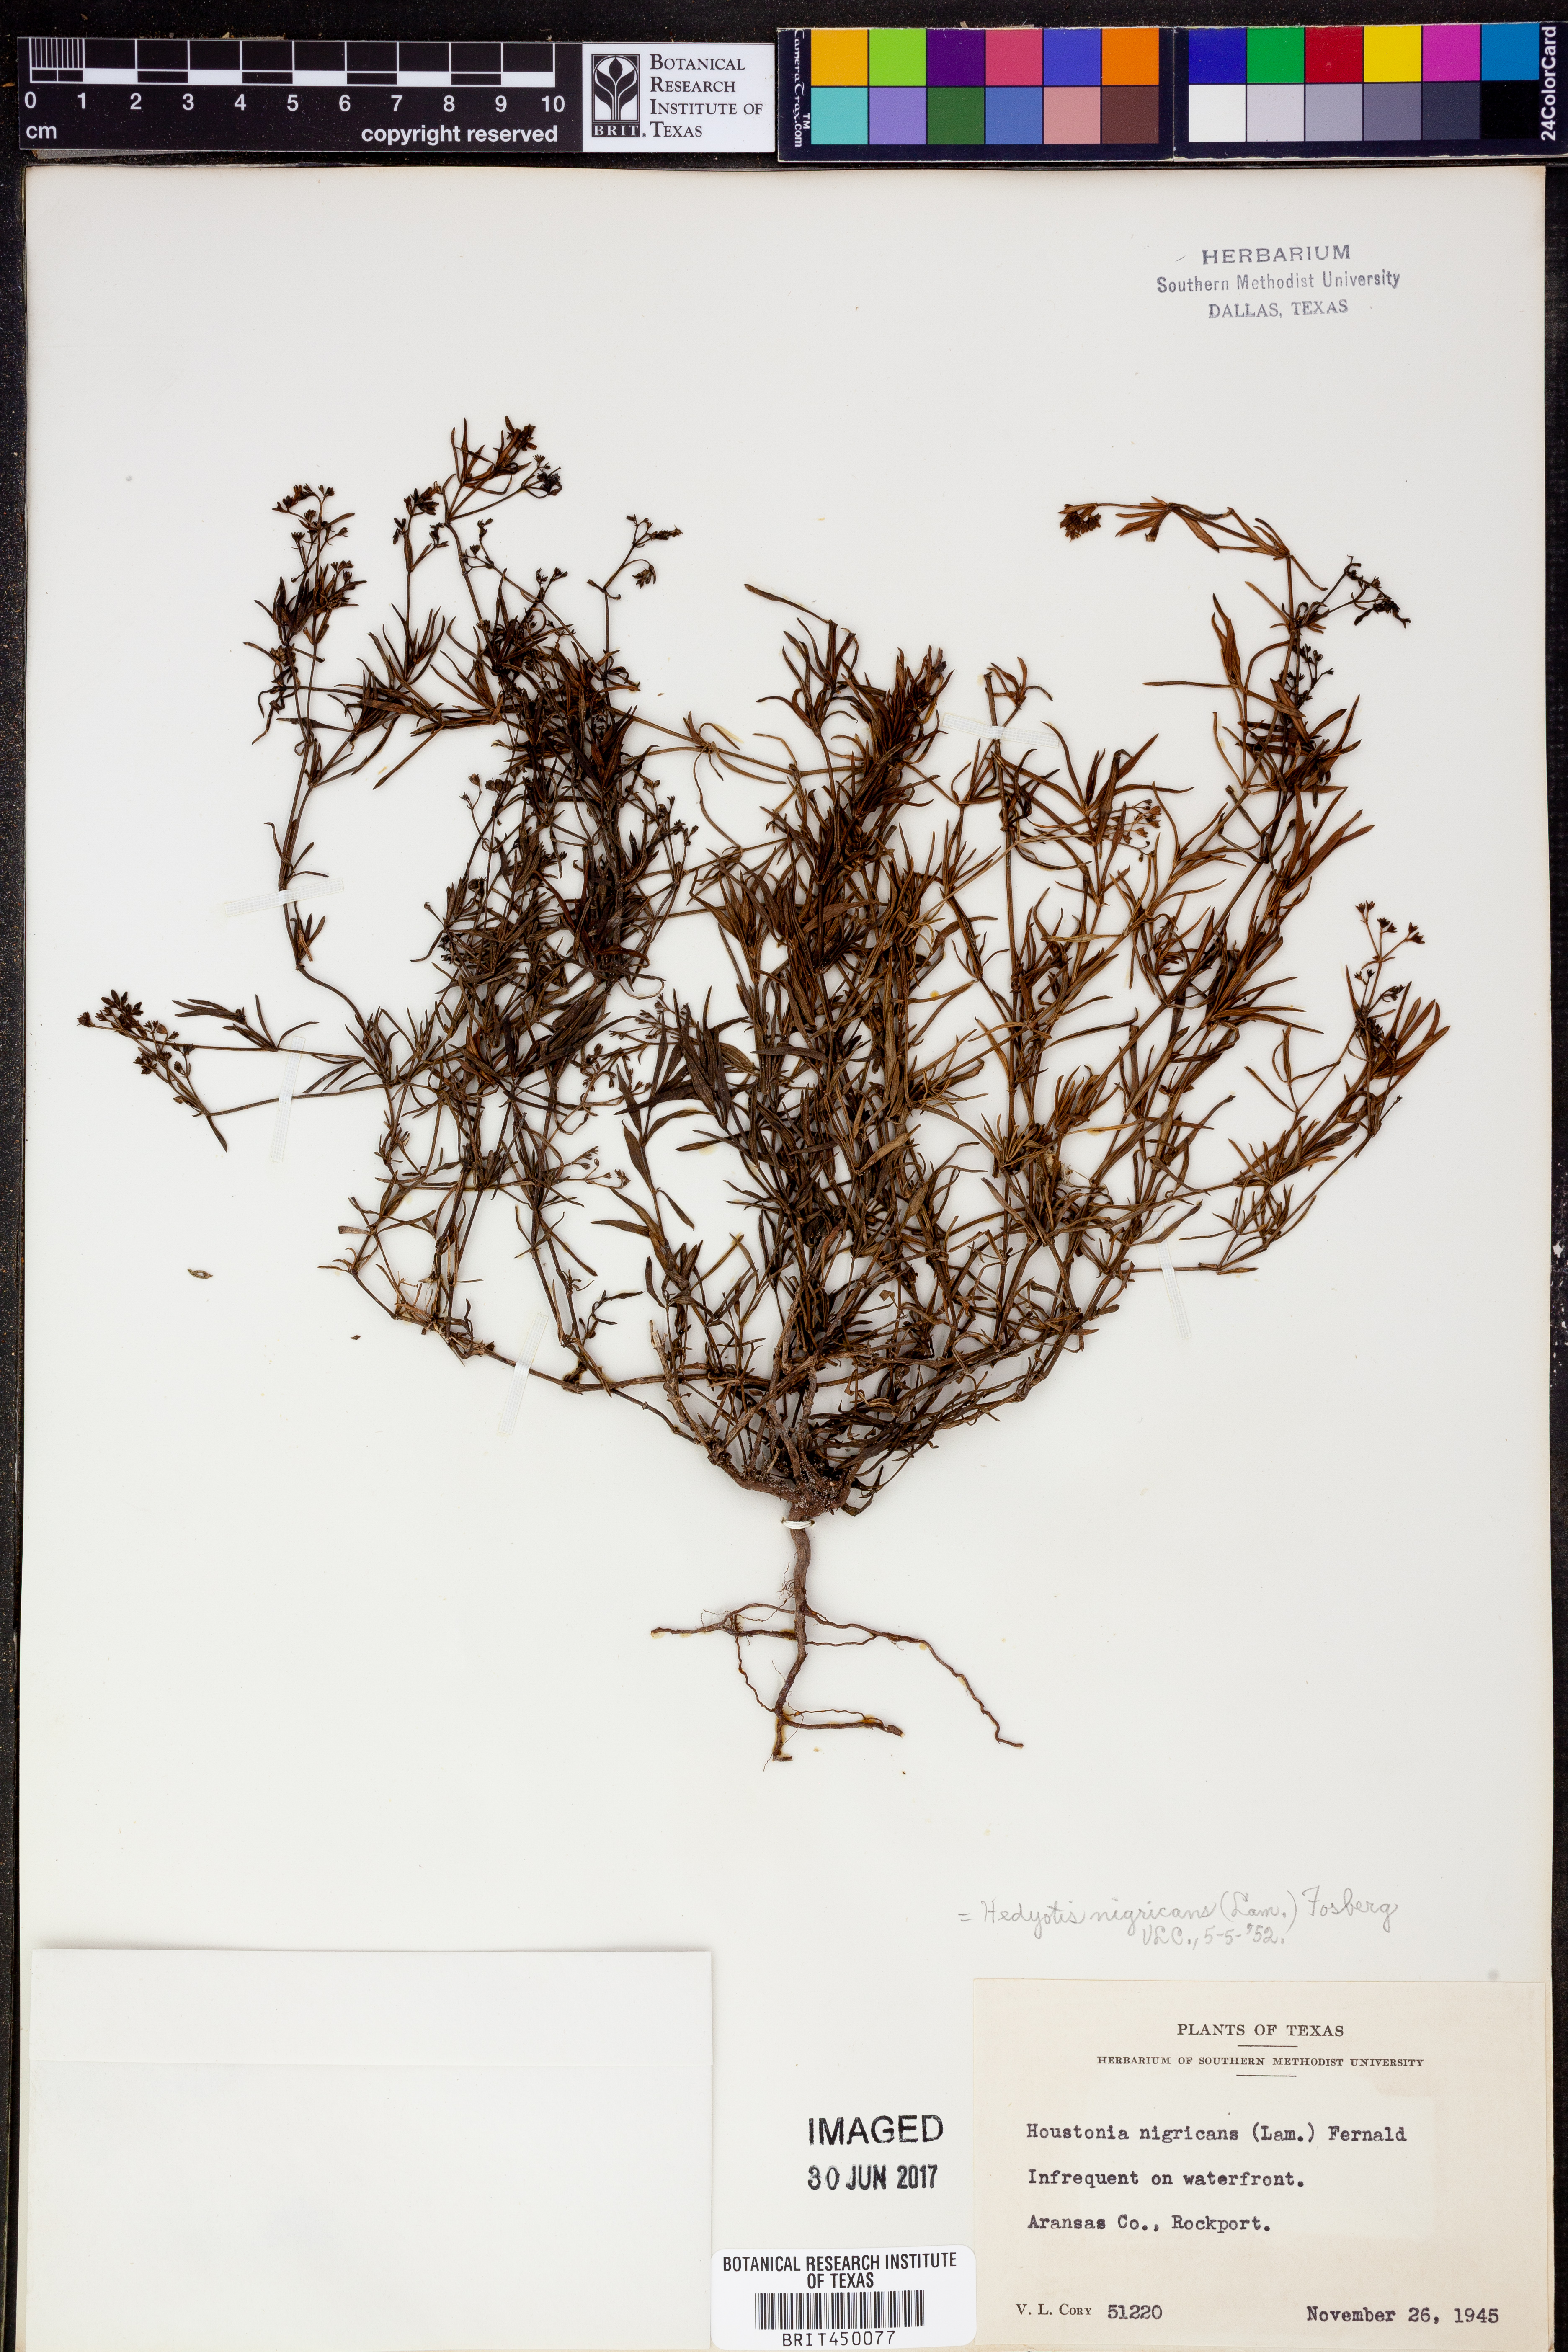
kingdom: Plantae
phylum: Tracheophyta
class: Magnoliopsida
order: Gentianales
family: Rubiaceae
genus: Stenaria
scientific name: Stenaria nigricans
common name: Diamondflowers
